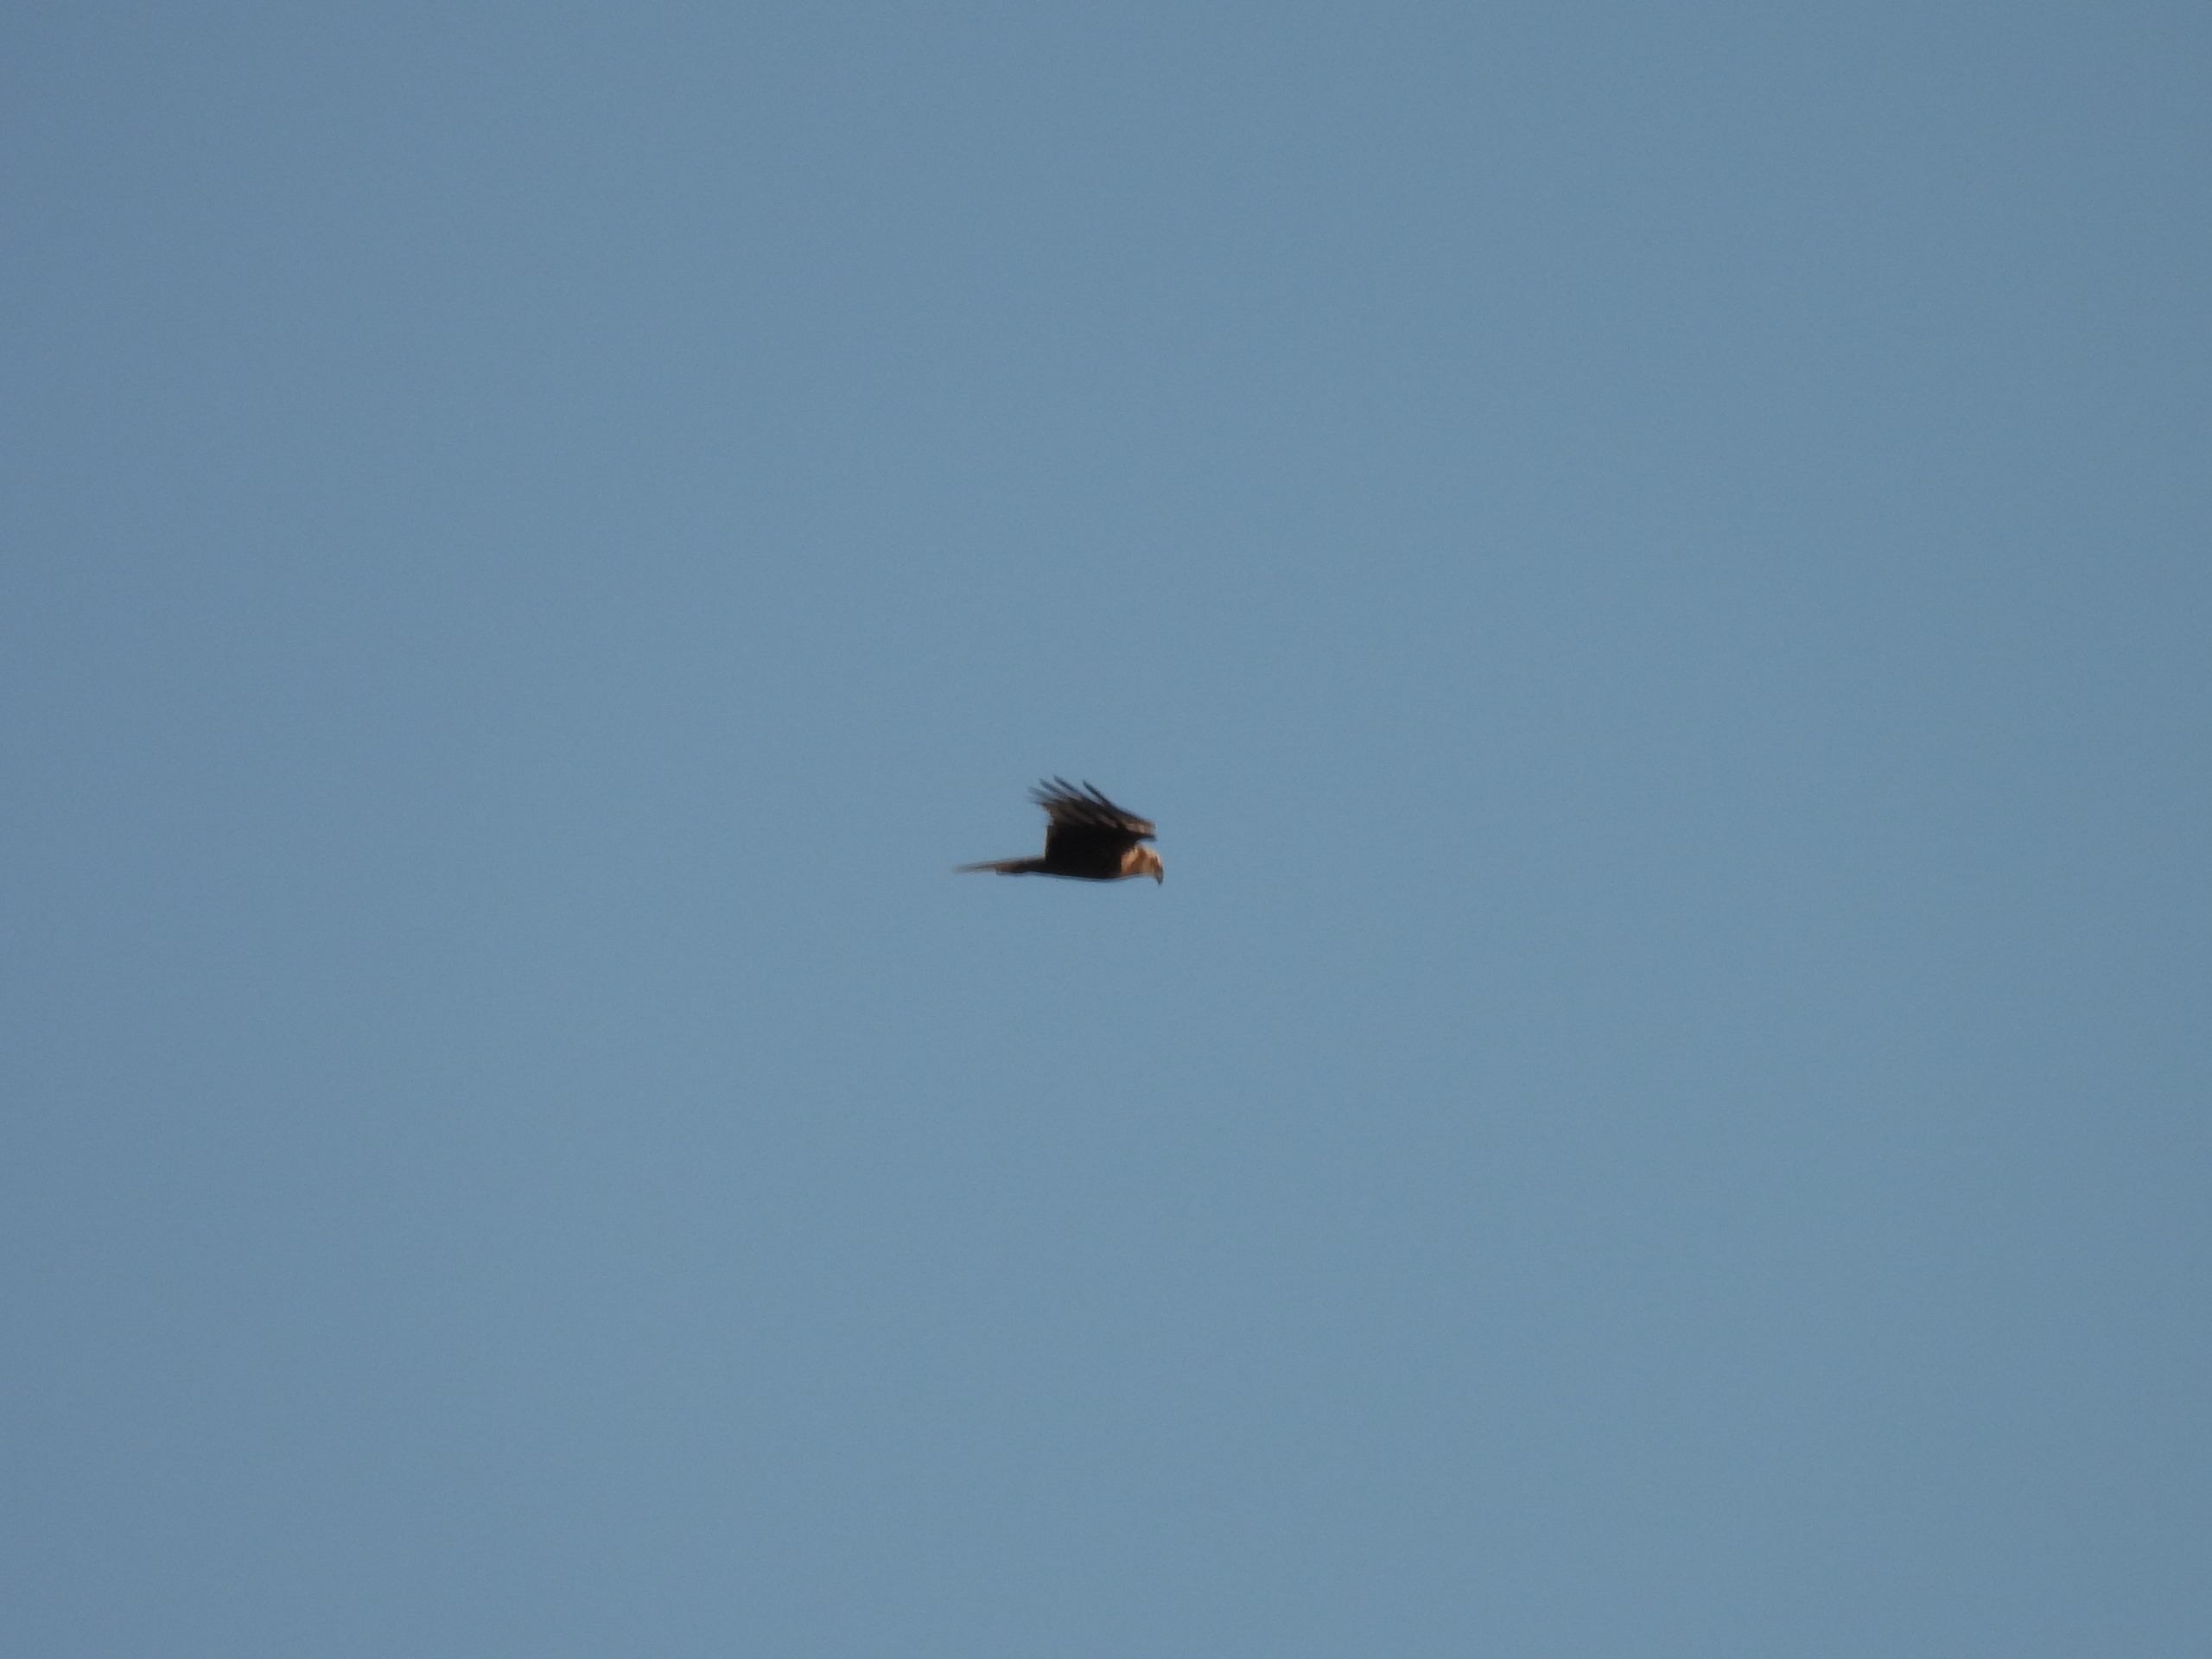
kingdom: Animalia
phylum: Chordata
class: Aves
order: Accipitriformes
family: Accipitridae
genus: Circus
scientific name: Circus aeruginosus
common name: Rørhøg
